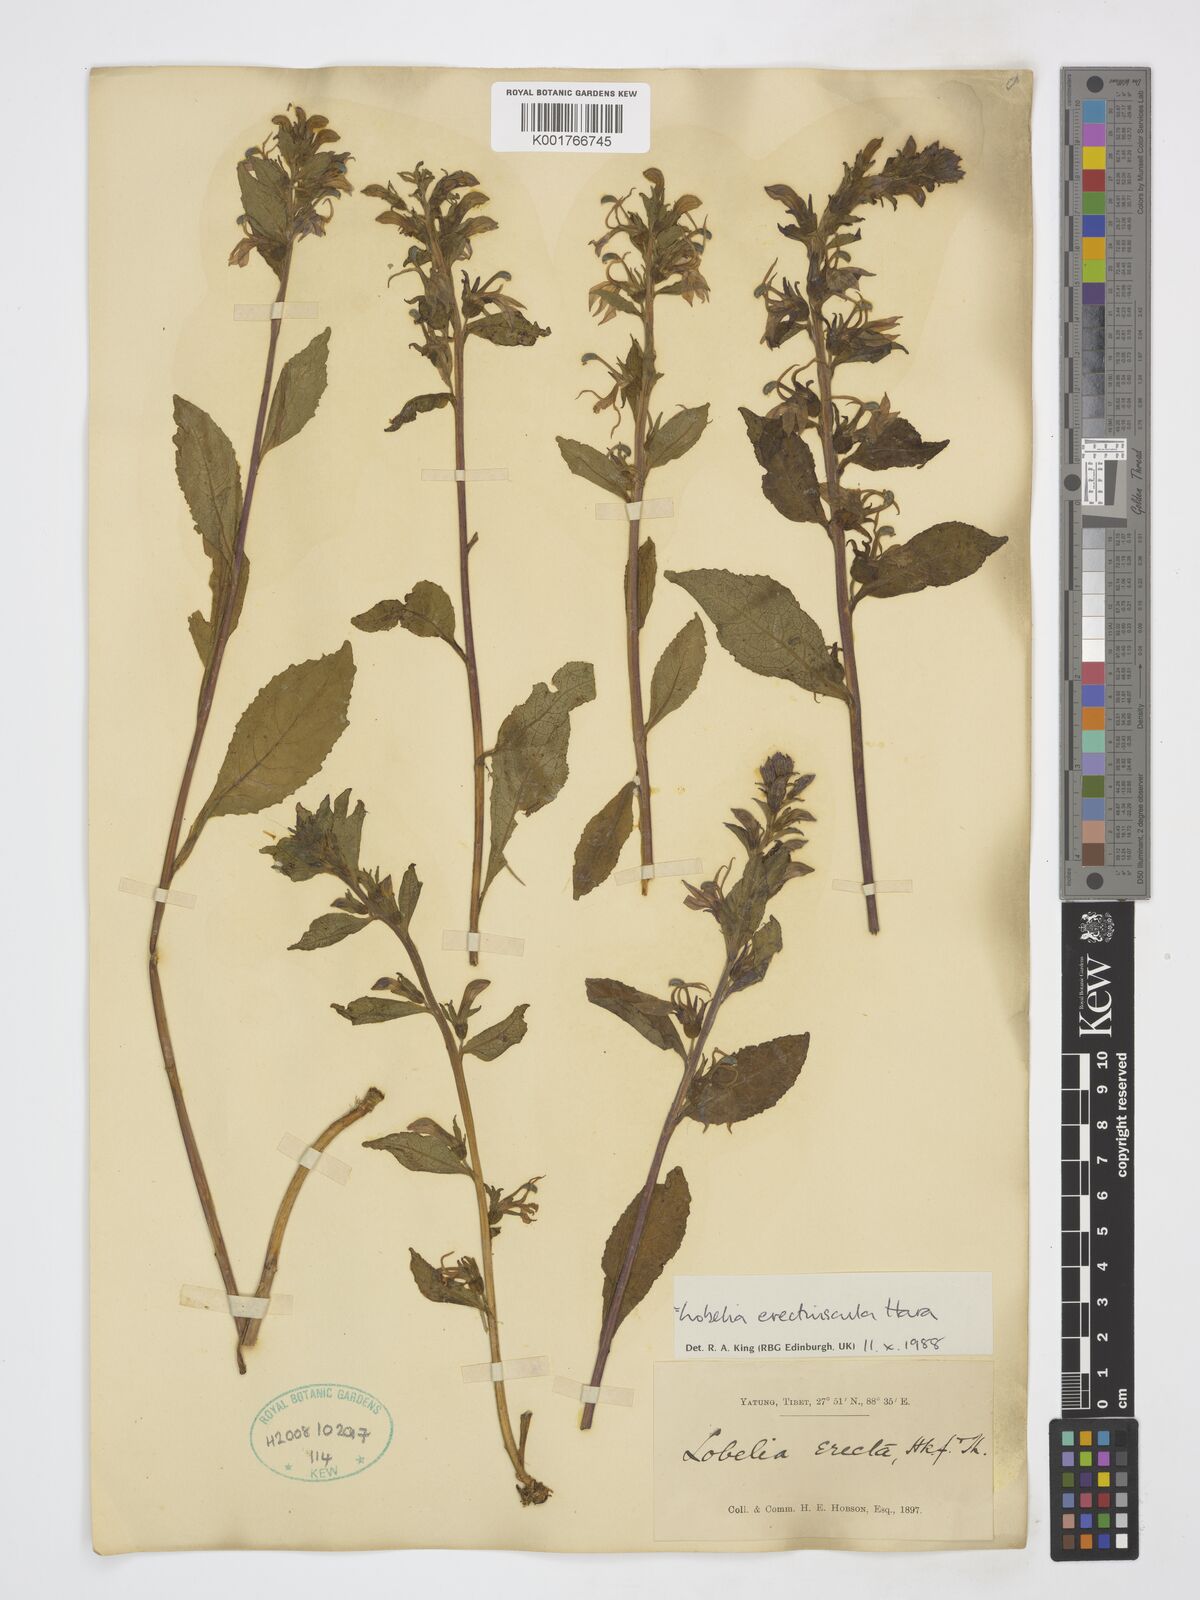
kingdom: Plantae
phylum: Tracheophyta
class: Magnoliopsida
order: Asterales
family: Campanulaceae
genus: Lobelia
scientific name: Lobelia erectiuscula
